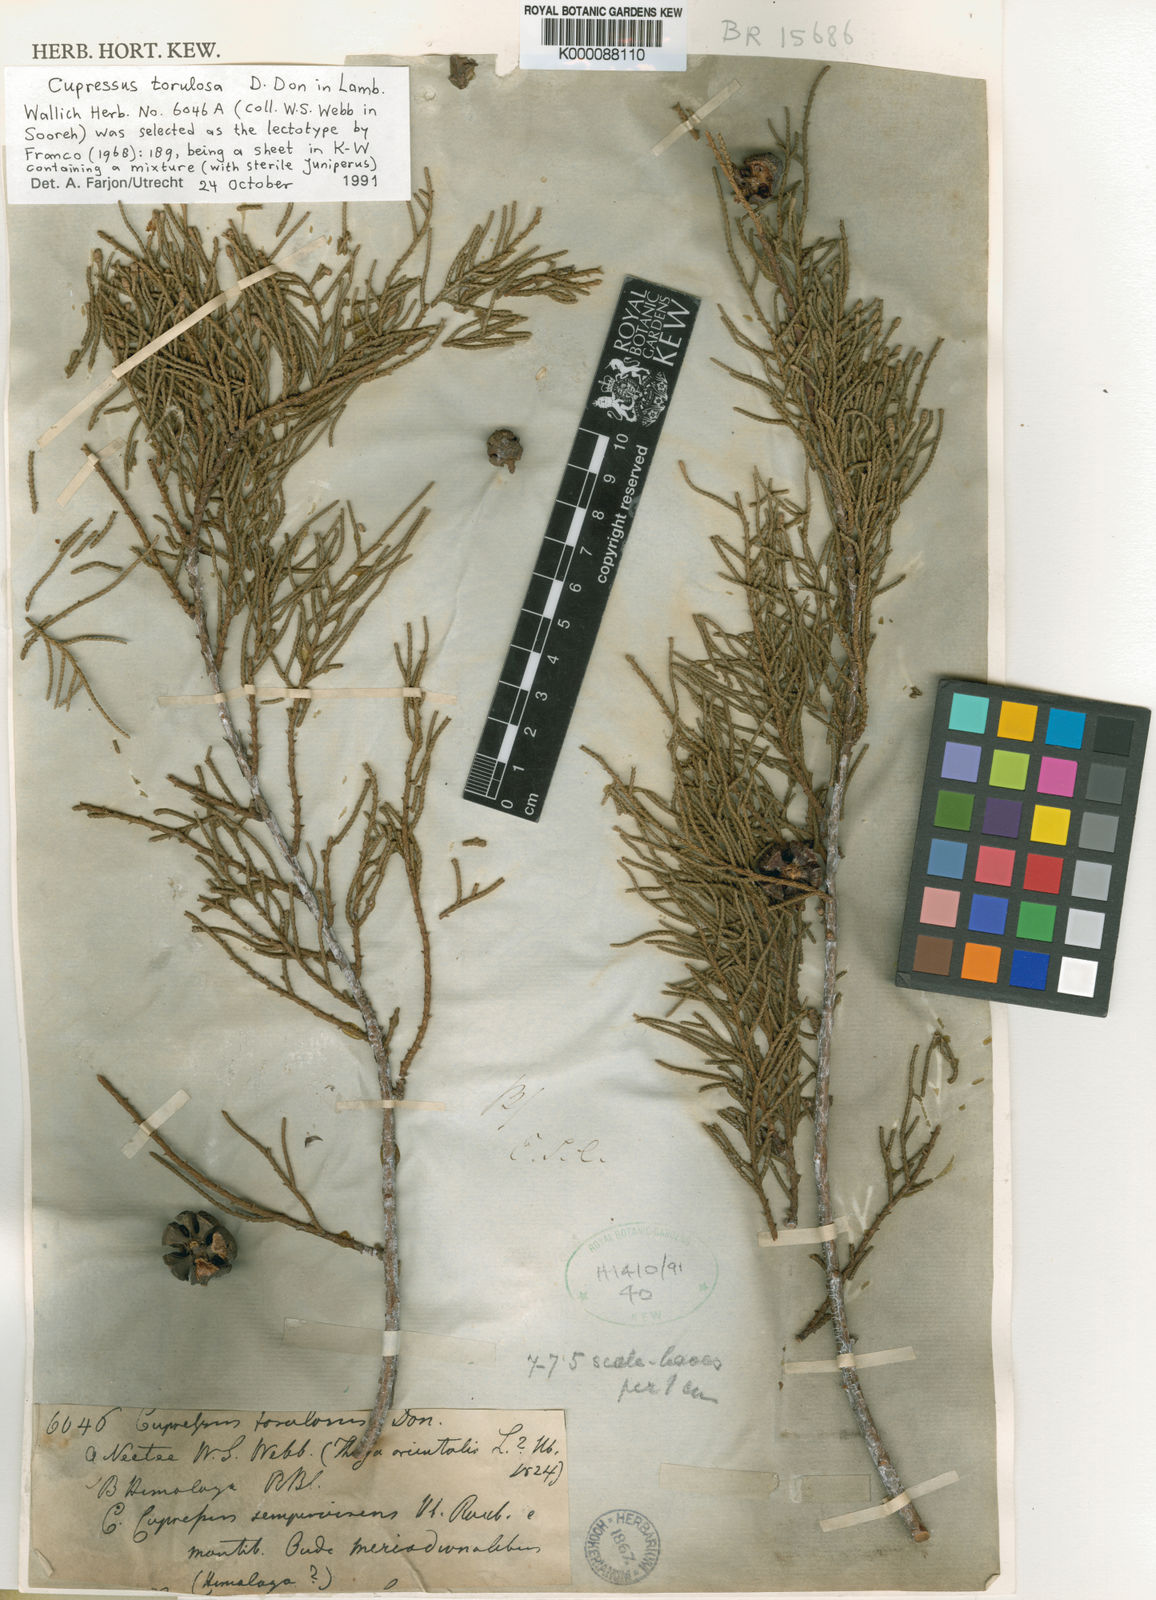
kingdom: Plantae
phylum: Tracheophyta
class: Pinopsida
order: Pinales
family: Cupressaceae
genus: Cupressus
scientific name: Cupressus
